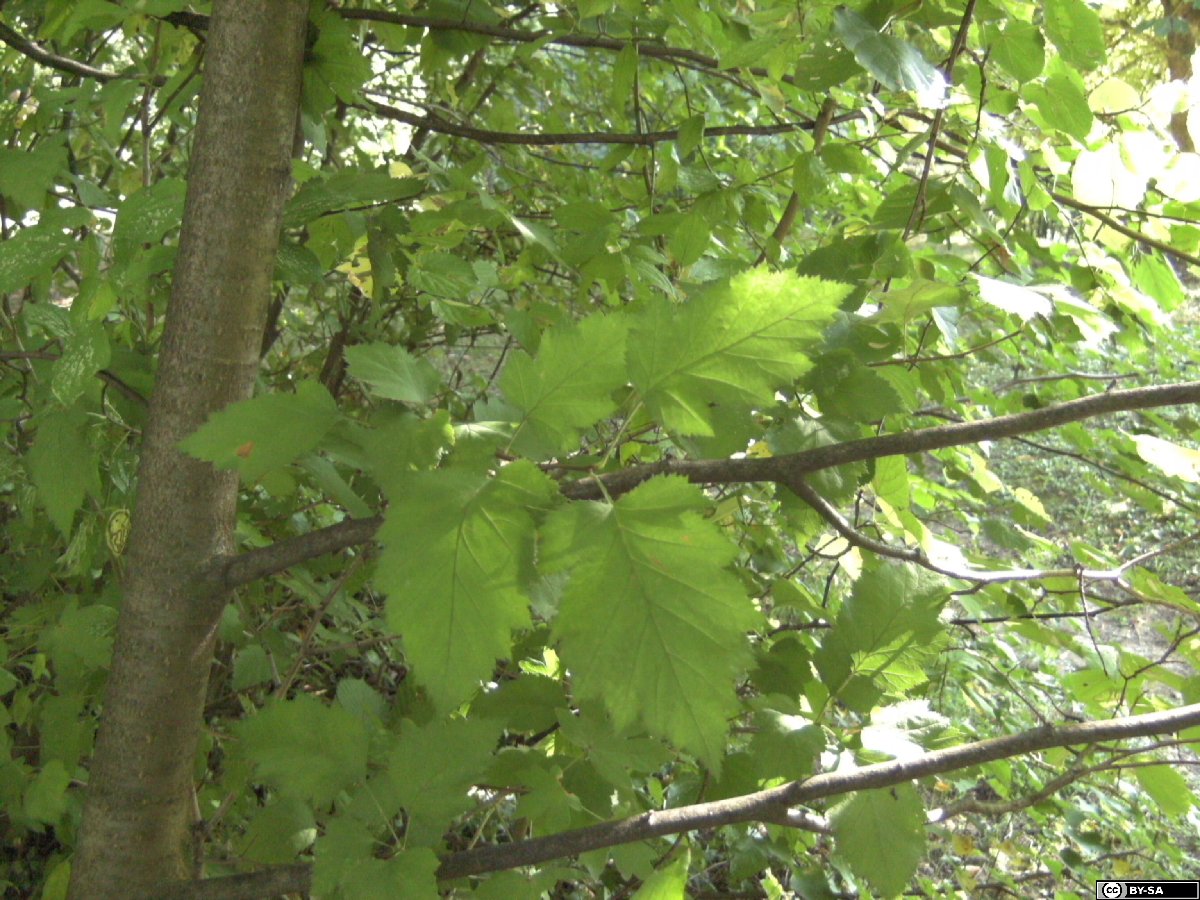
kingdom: Plantae
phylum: Tracheophyta
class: Magnoliopsida
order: Rosales
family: Rosaceae
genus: Crataegus
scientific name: Crataegus coccinea
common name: Scarlet hawthorn
